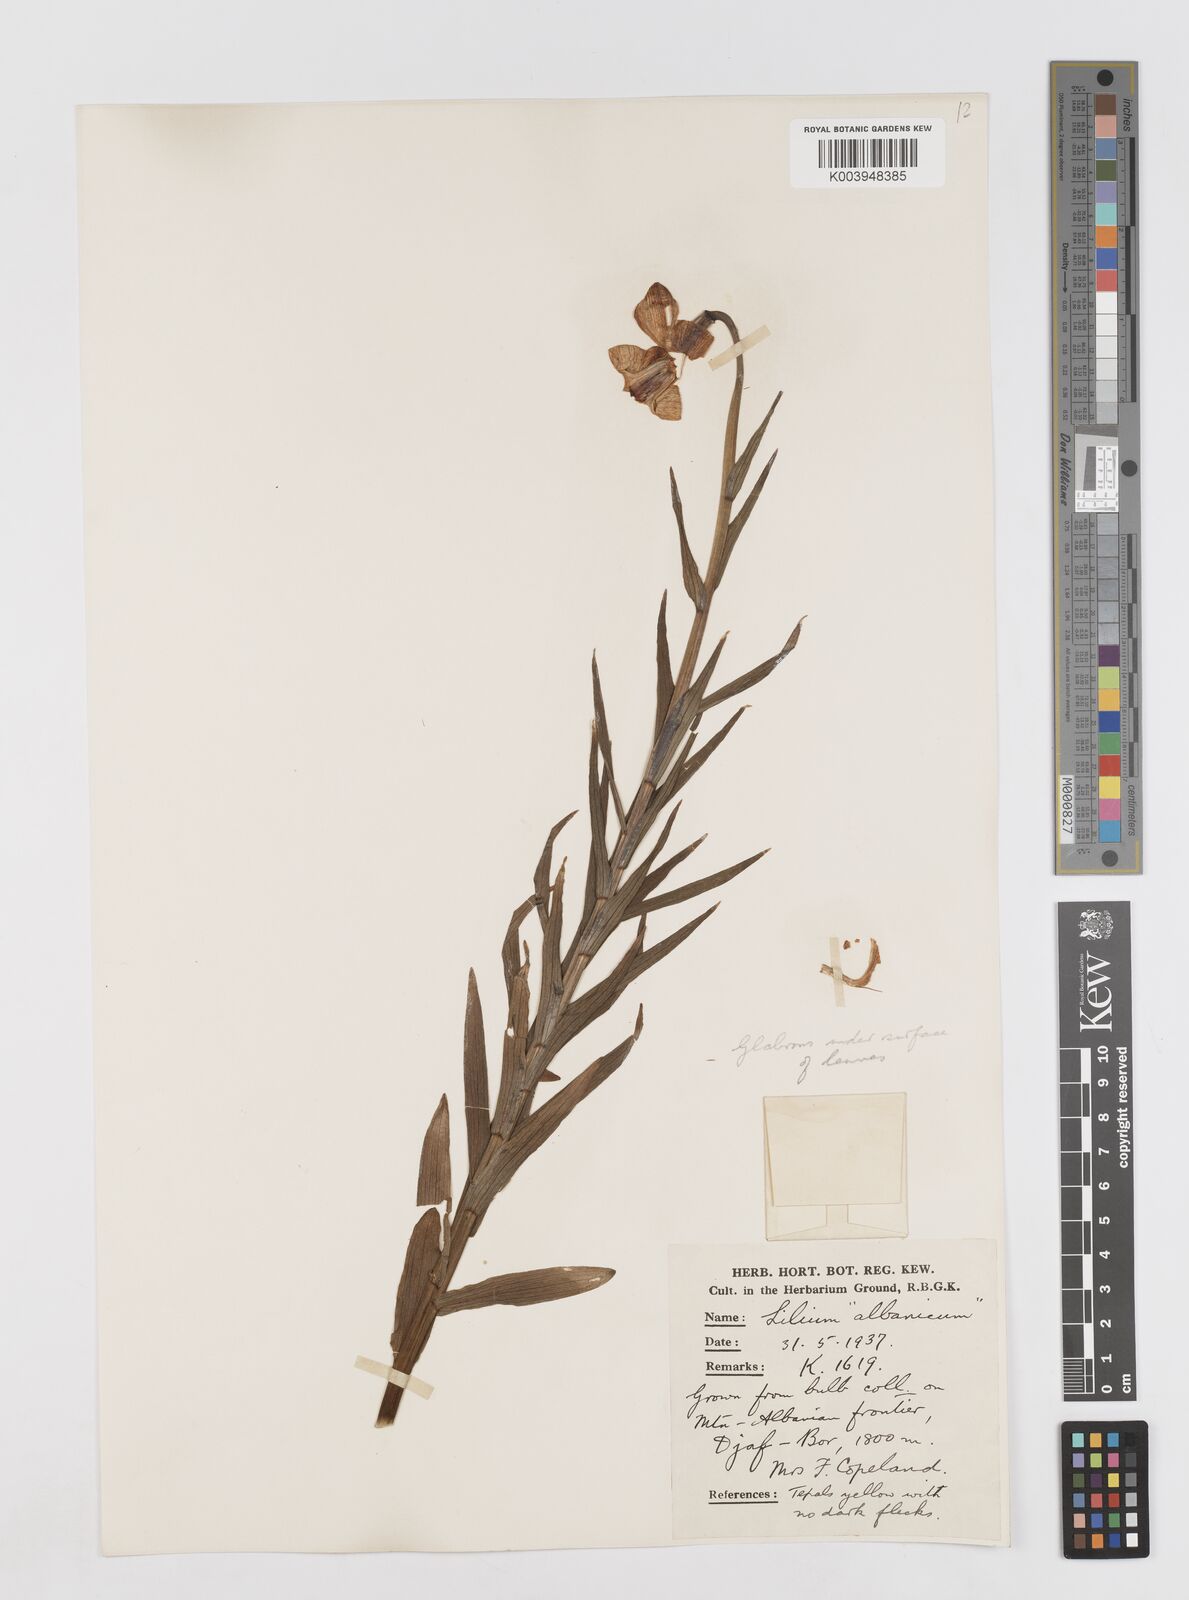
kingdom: Plantae
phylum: Tracheophyta
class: Liliopsida
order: Liliales
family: Liliaceae
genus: Lilium
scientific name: Lilium
